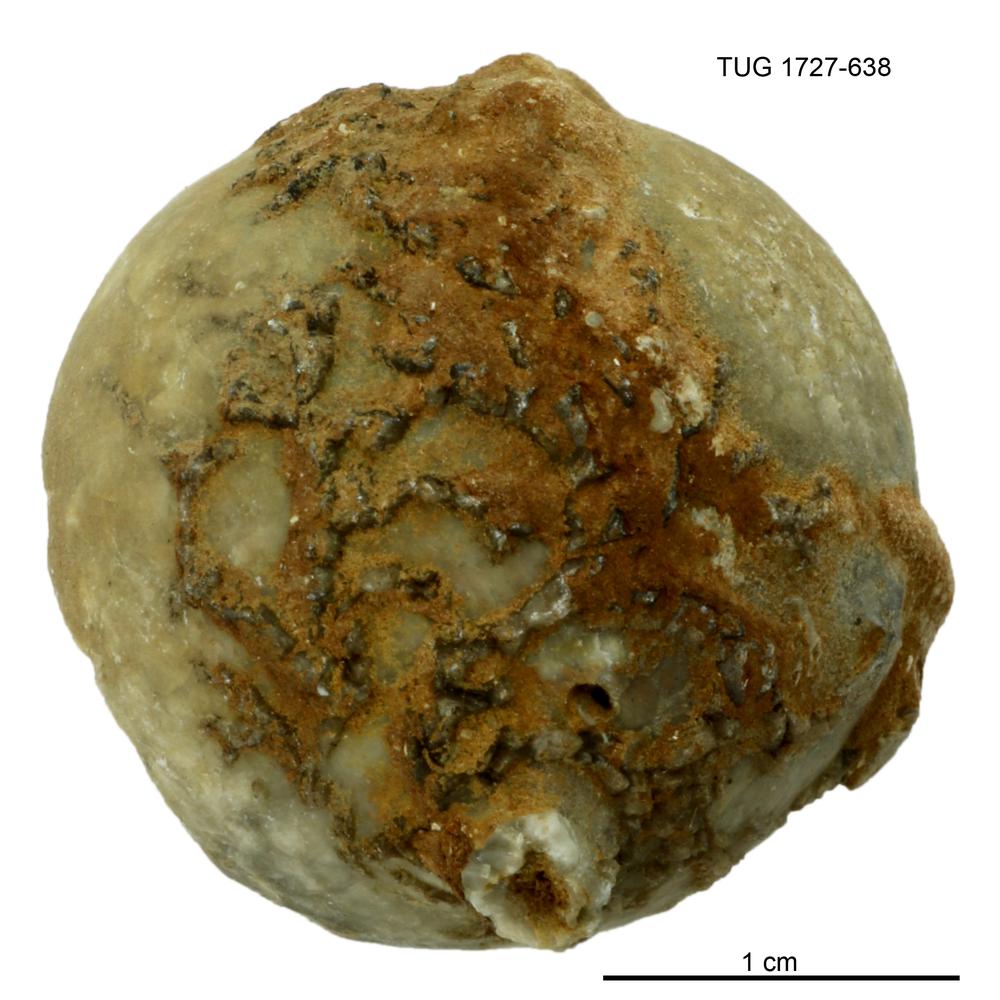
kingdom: Animalia
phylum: Echinodermata
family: Echinosphaeritidae
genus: Echinosphaerites
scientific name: Echinosphaerites Echinus aurantium
